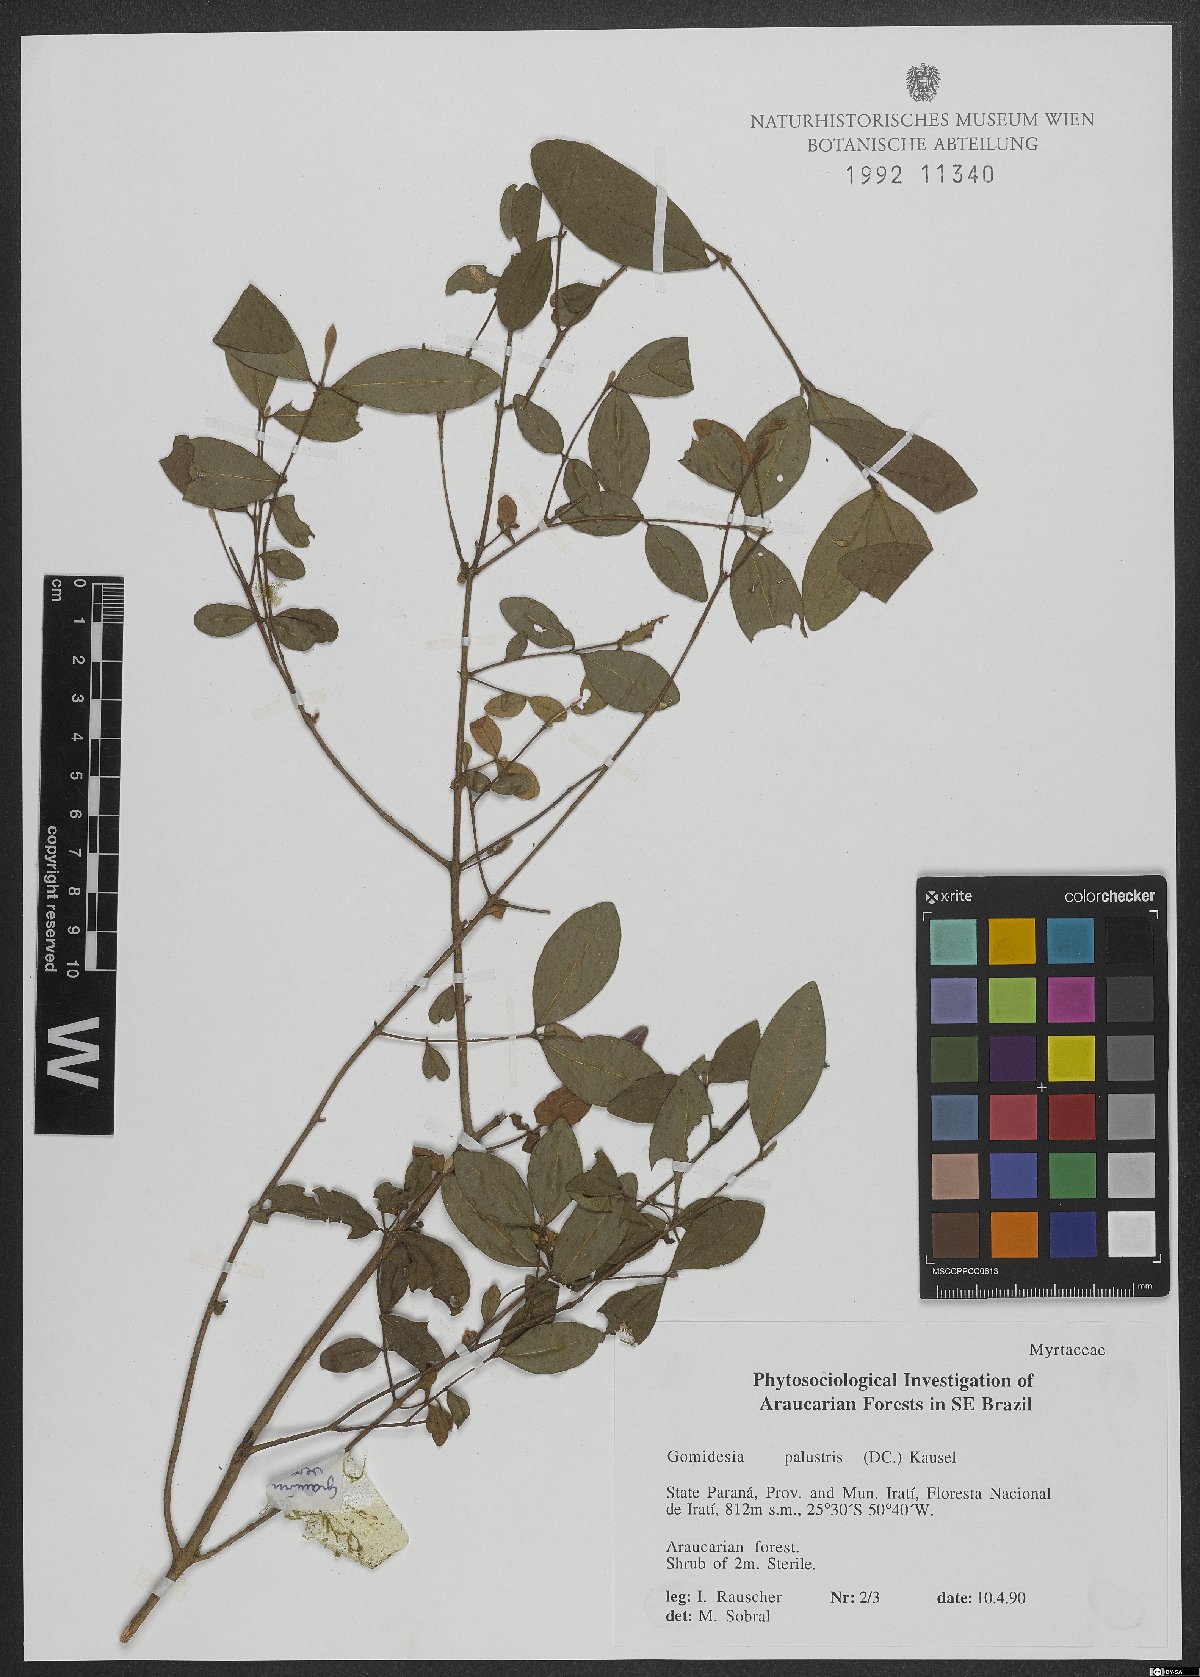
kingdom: Plantae
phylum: Tracheophyta
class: Magnoliopsida
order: Myrtales
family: Myrtaceae
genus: Myrcia
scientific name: Myrcia palustris
